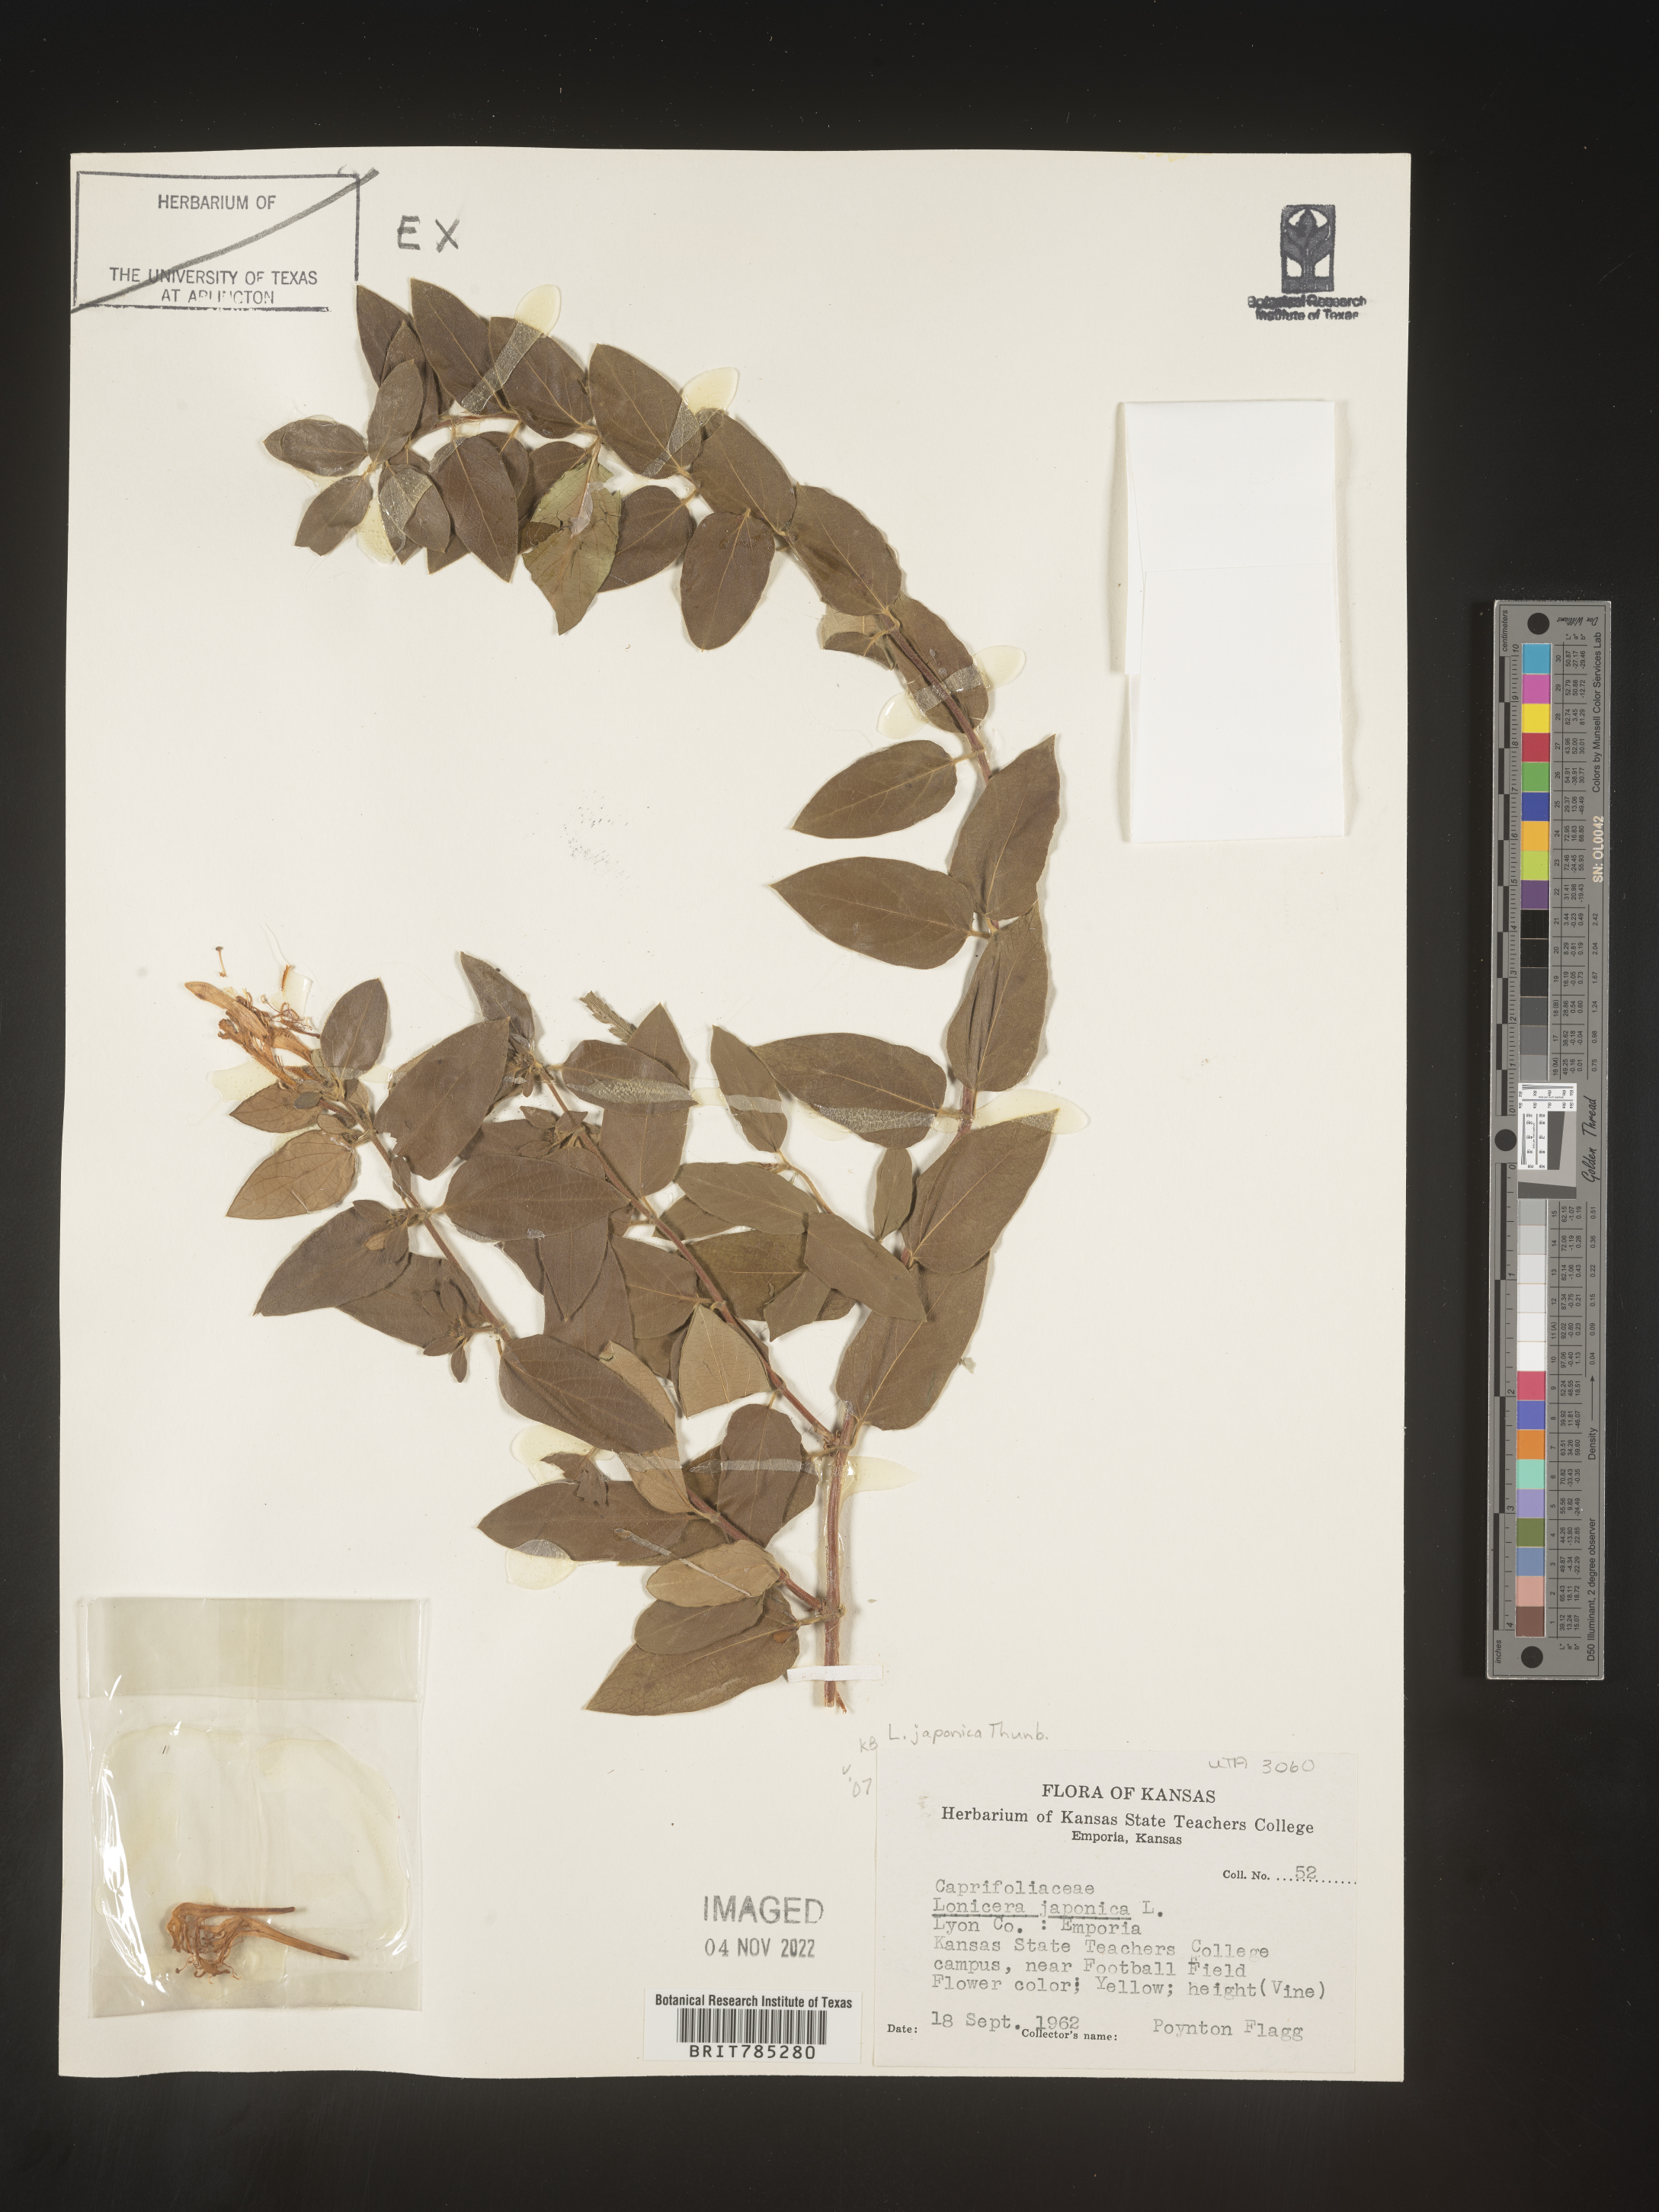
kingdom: Plantae
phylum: Tracheophyta
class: Magnoliopsida
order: Dipsacales
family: Caprifoliaceae
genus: Lonicera
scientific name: Lonicera japonica
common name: Japanese honeysuckle
